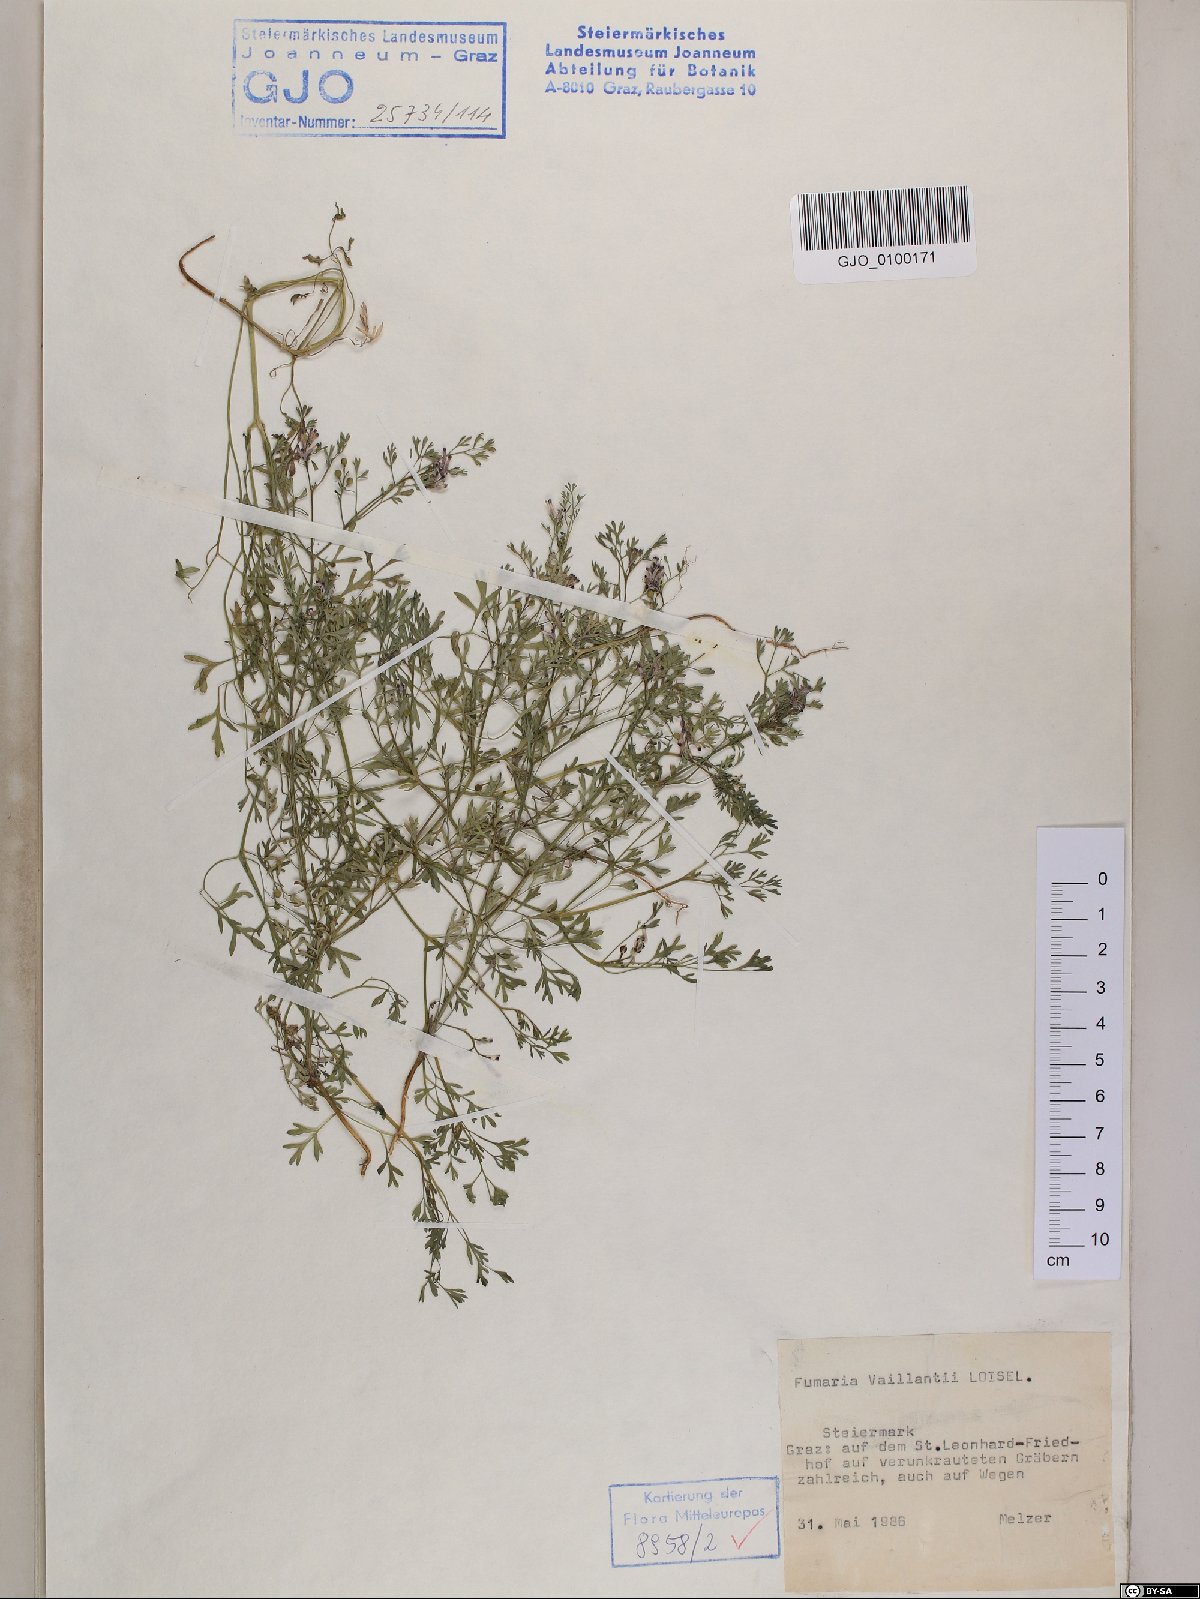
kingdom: Plantae
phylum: Tracheophyta
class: Magnoliopsida
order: Ranunculales
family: Papaveraceae
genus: Fumaria
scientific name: Fumaria vaillantii
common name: Few-flowered fumitory
